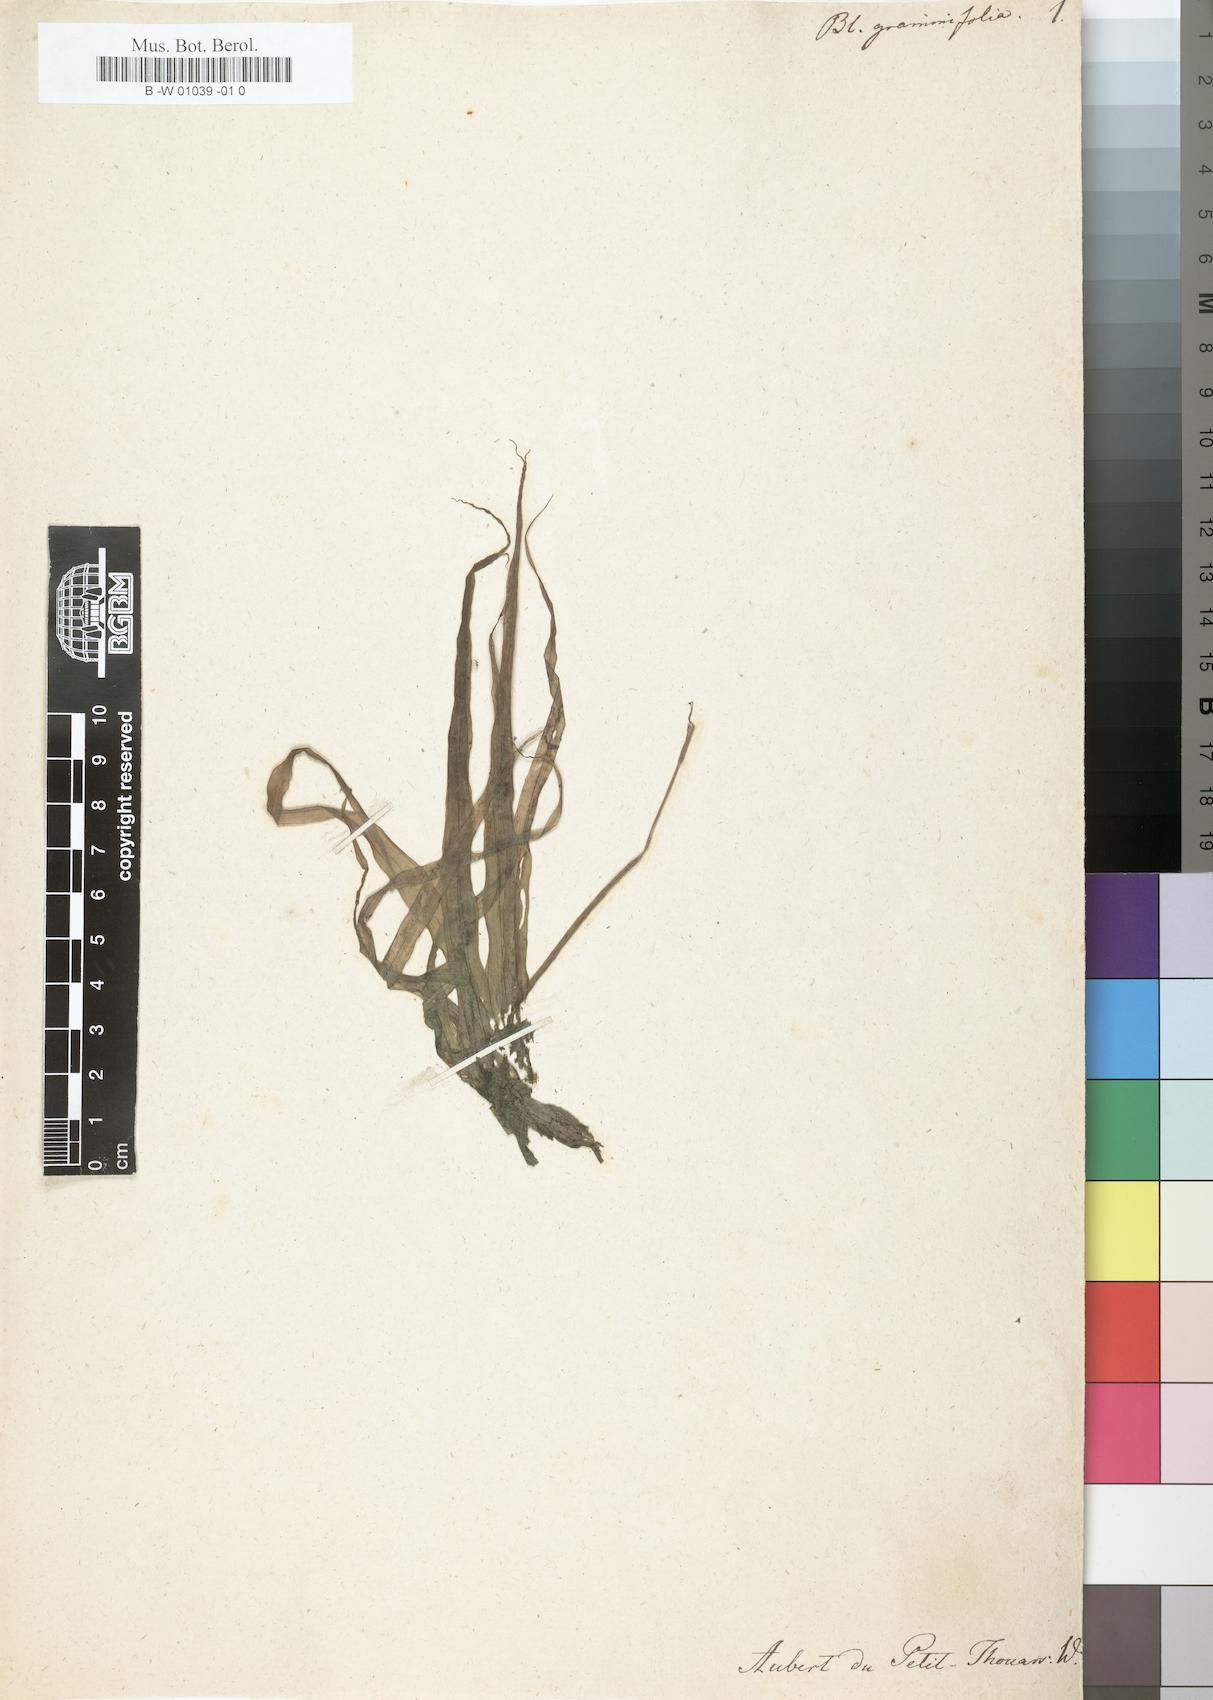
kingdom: Plantae
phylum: Tracheophyta
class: Liliopsida
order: Alismatales
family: Hydrocharitaceae
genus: Blyxa
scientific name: Blyxa
